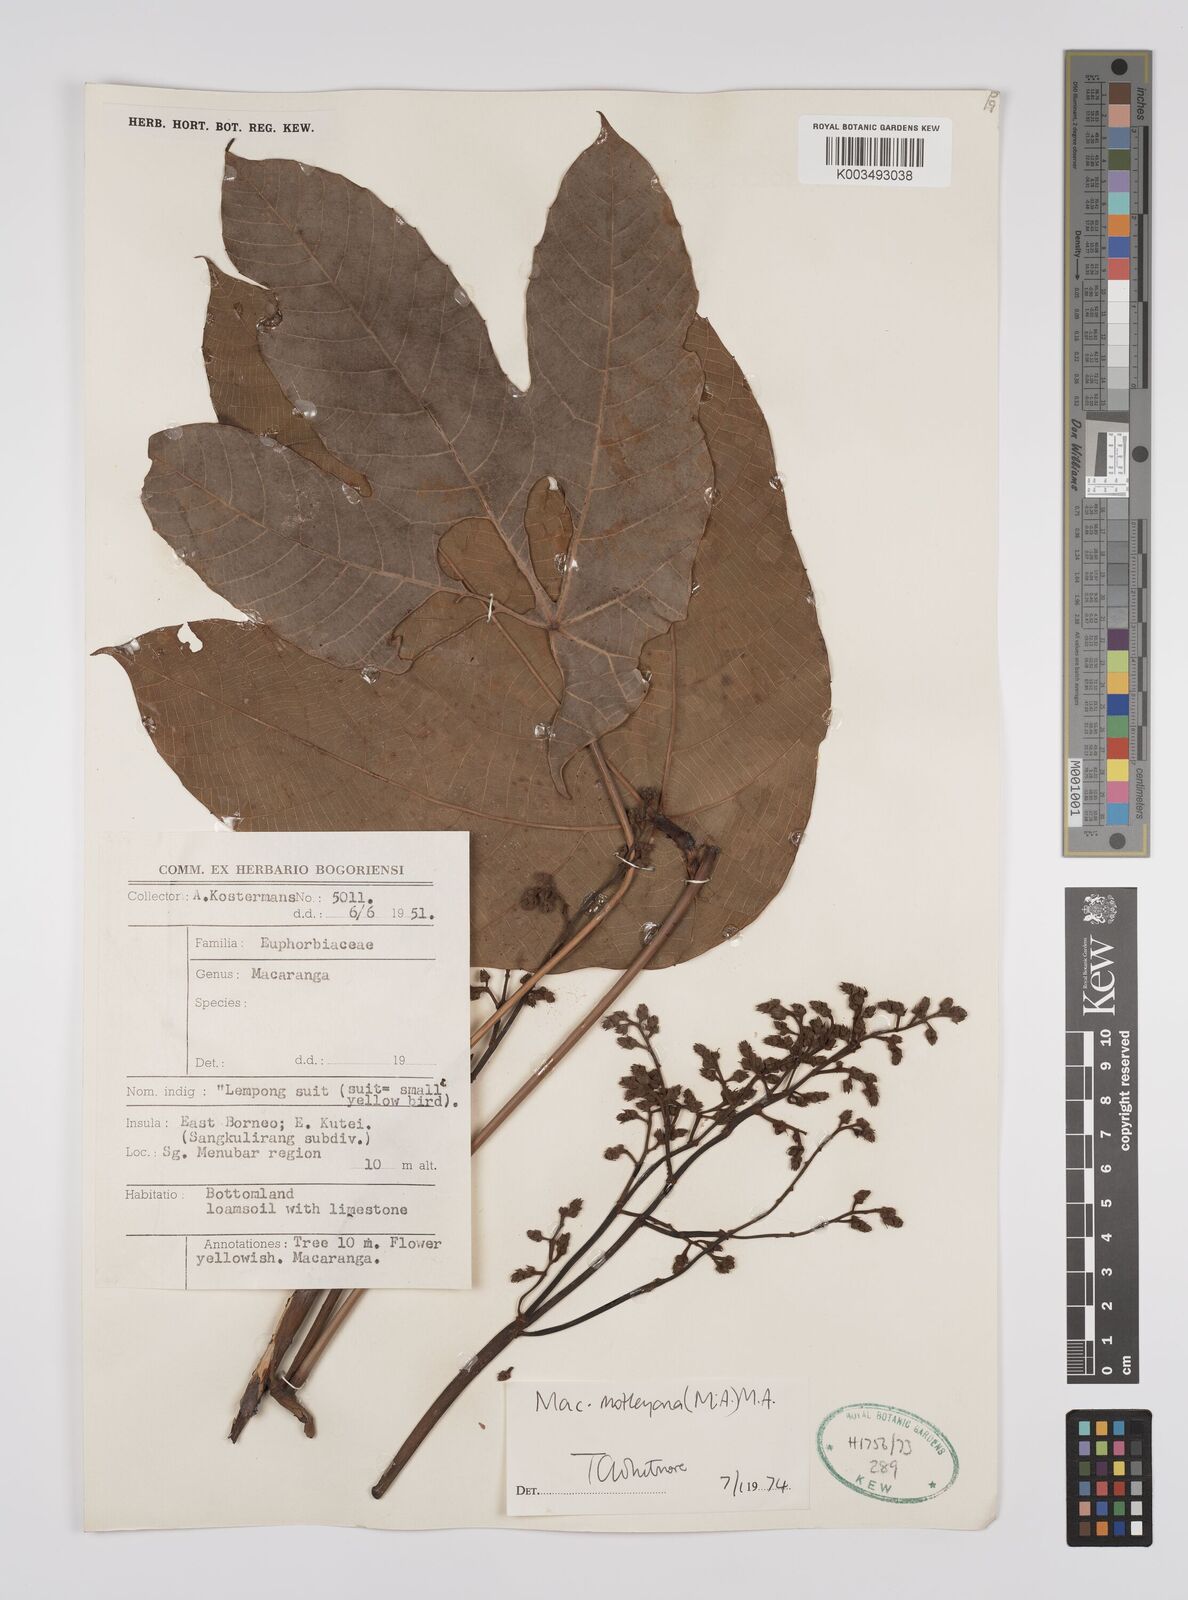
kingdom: Plantae
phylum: Tracheophyta
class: Magnoliopsida
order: Malpighiales
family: Euphorbiaceae
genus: Macaranga
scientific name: Macaranga motleyana
